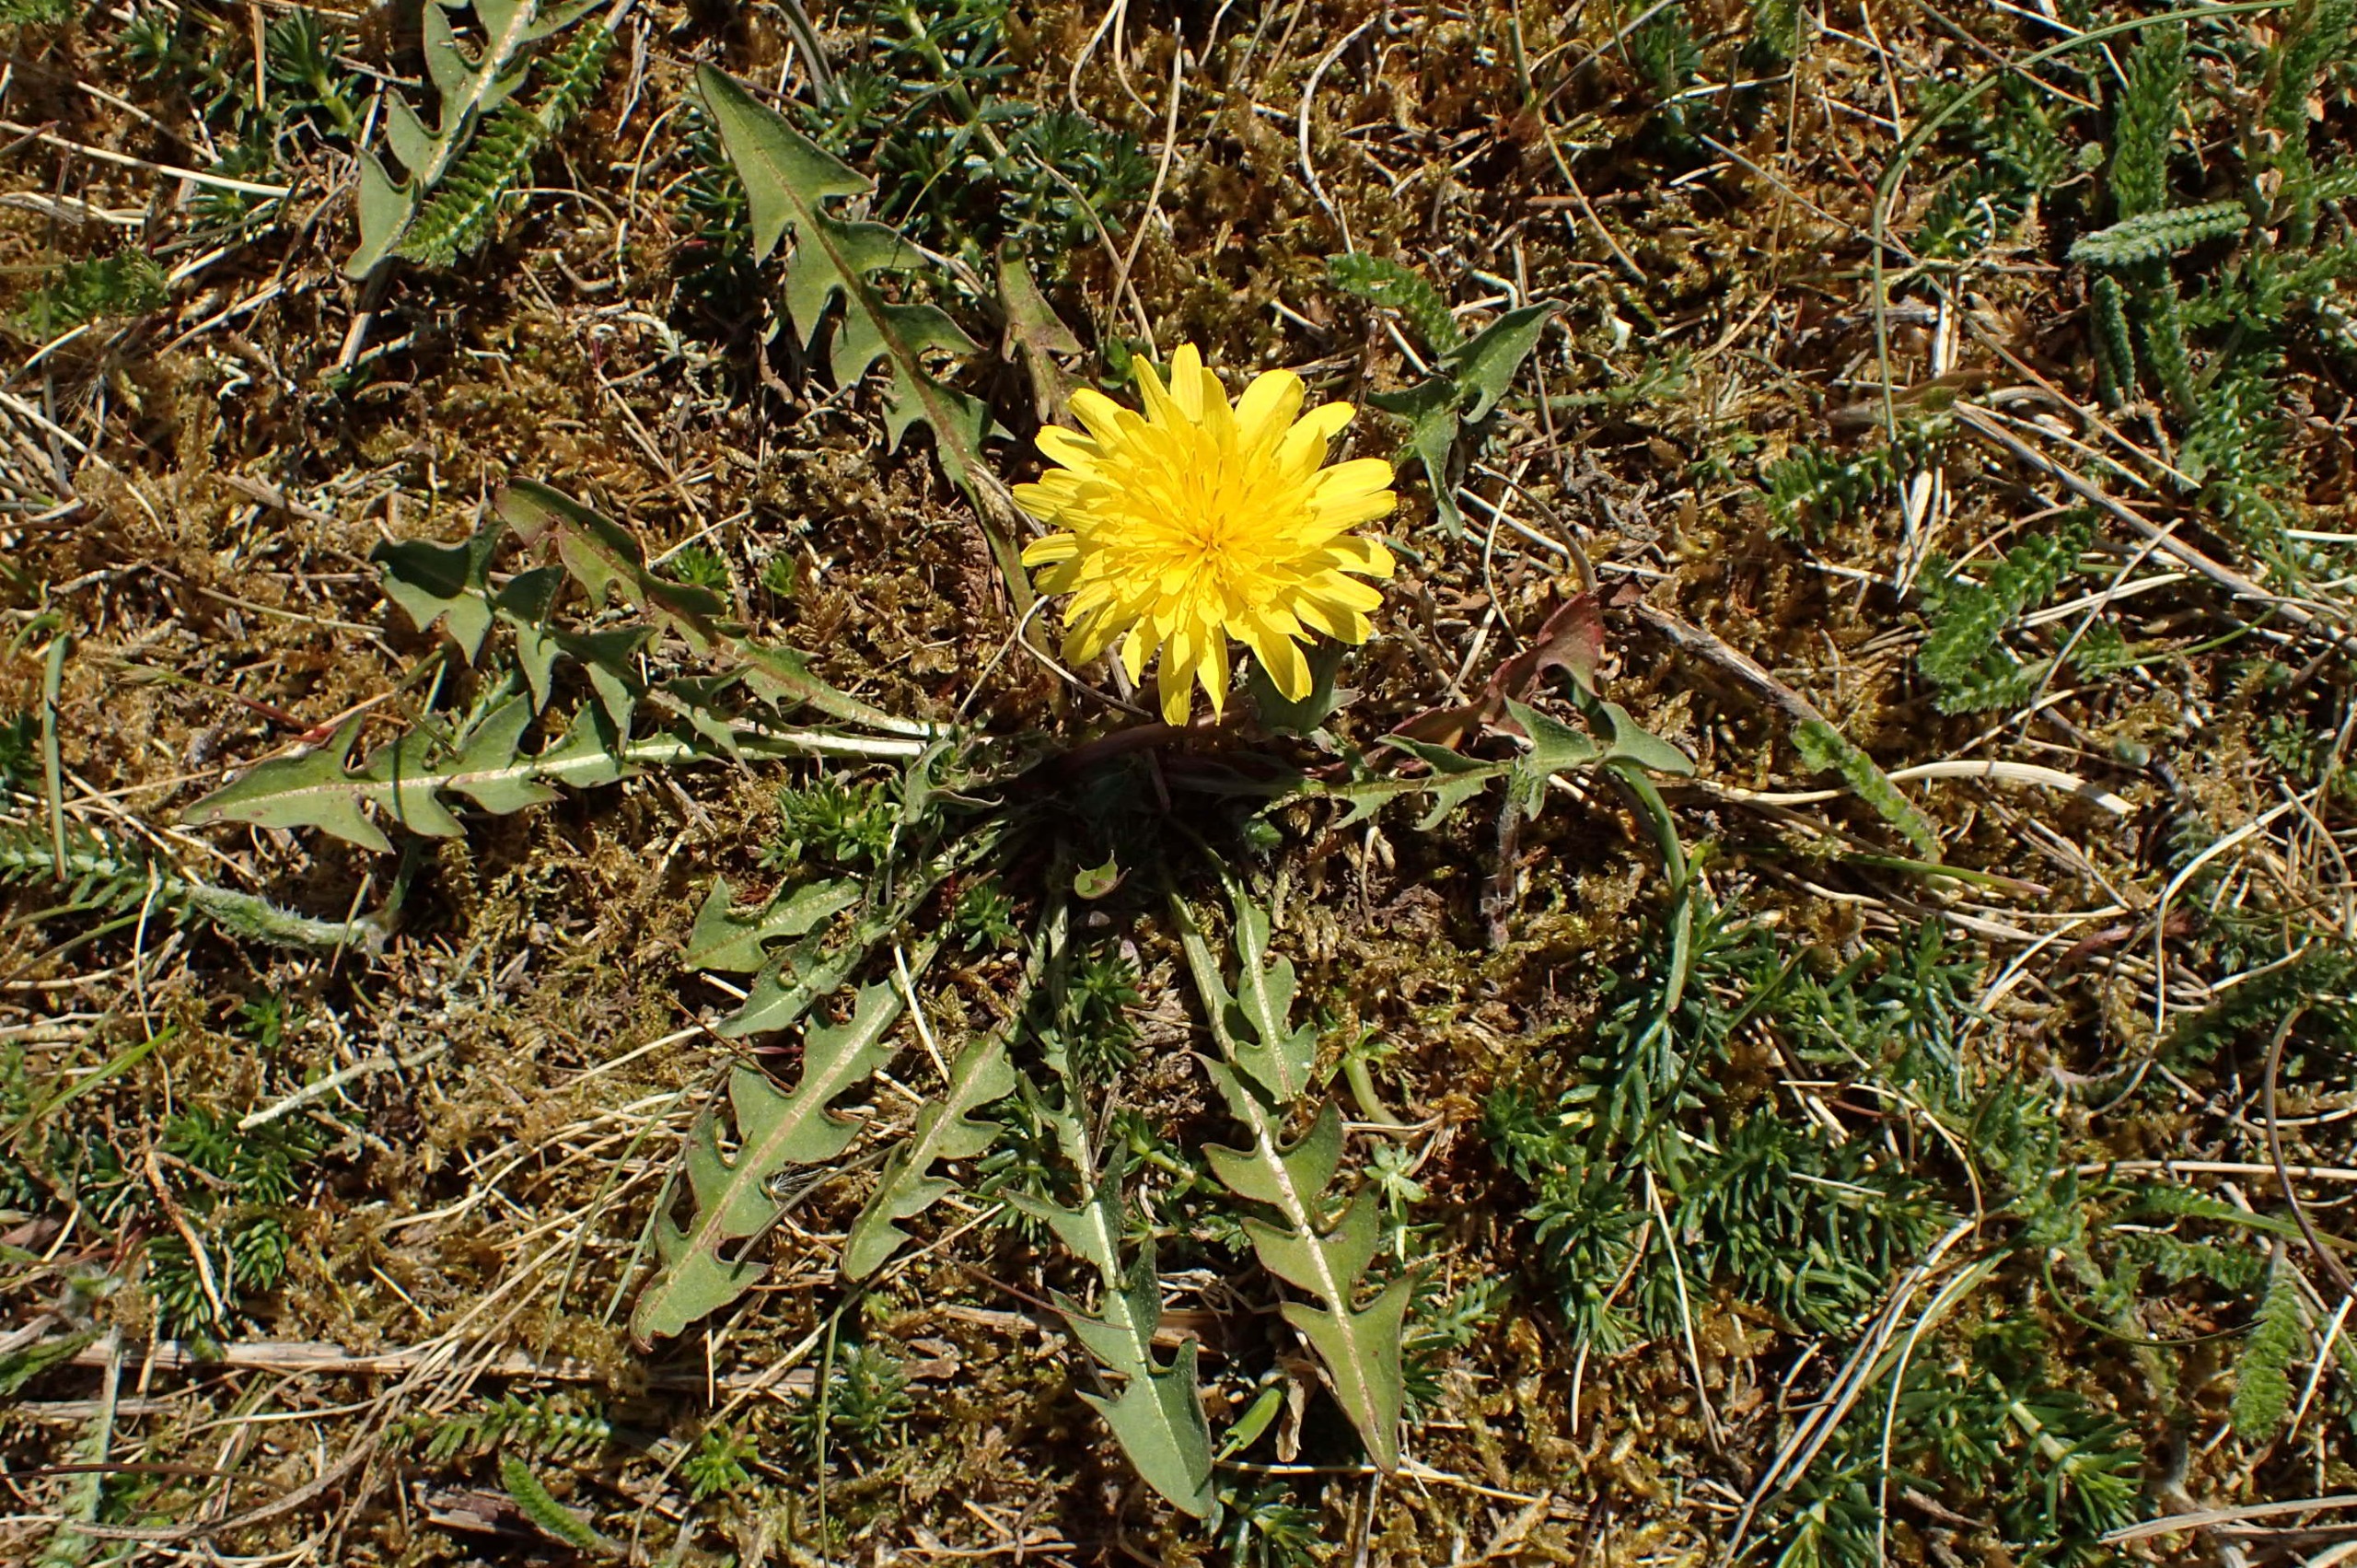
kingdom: Plantae
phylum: Tracheophyta
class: Magnoliopsida
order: Asterales
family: Asteraceae
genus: Taraxacum
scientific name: Taraxacum laetum
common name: Lys sandmælkebøtte
